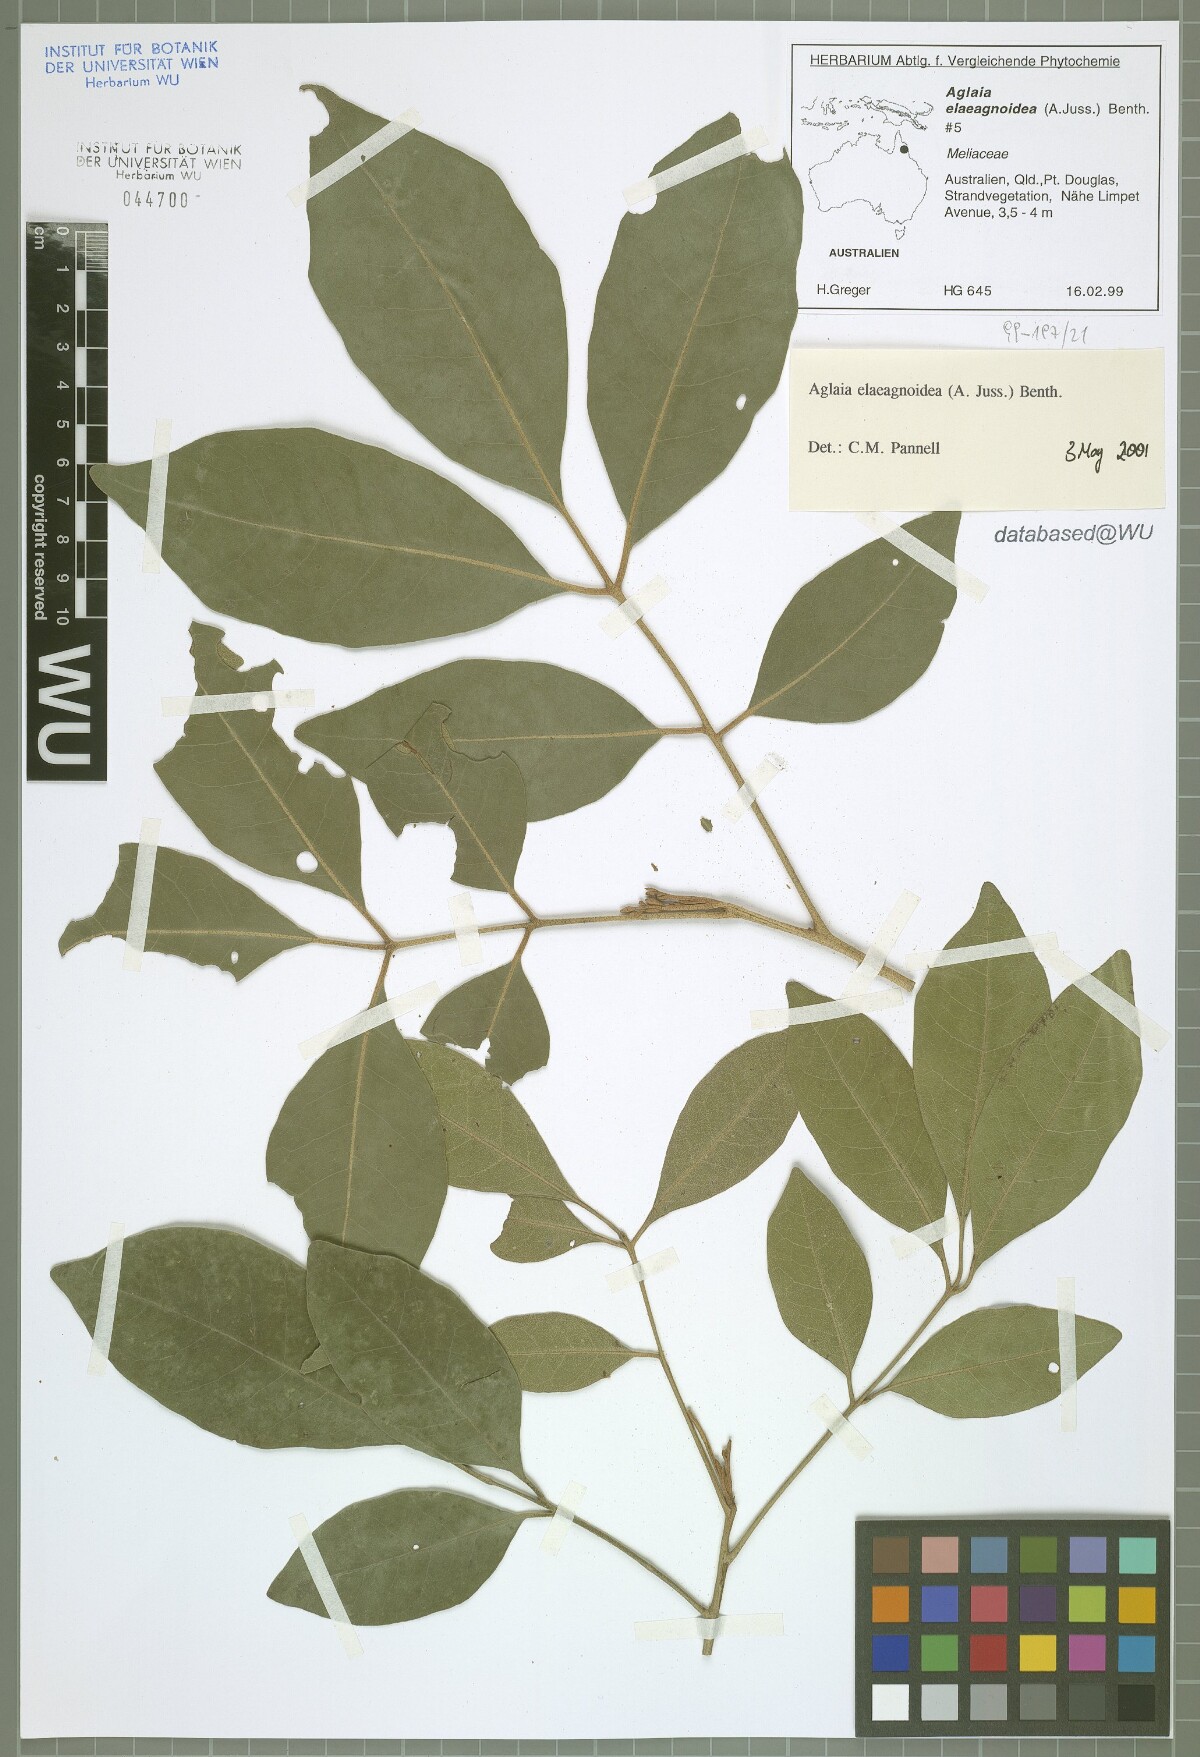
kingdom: Plantae
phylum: Tracheophyta
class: Magnoliopsida
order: Sapindales
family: Meliaceae
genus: Aglaia
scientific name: Aglaia elaeagnoidea
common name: Droopyleaf
